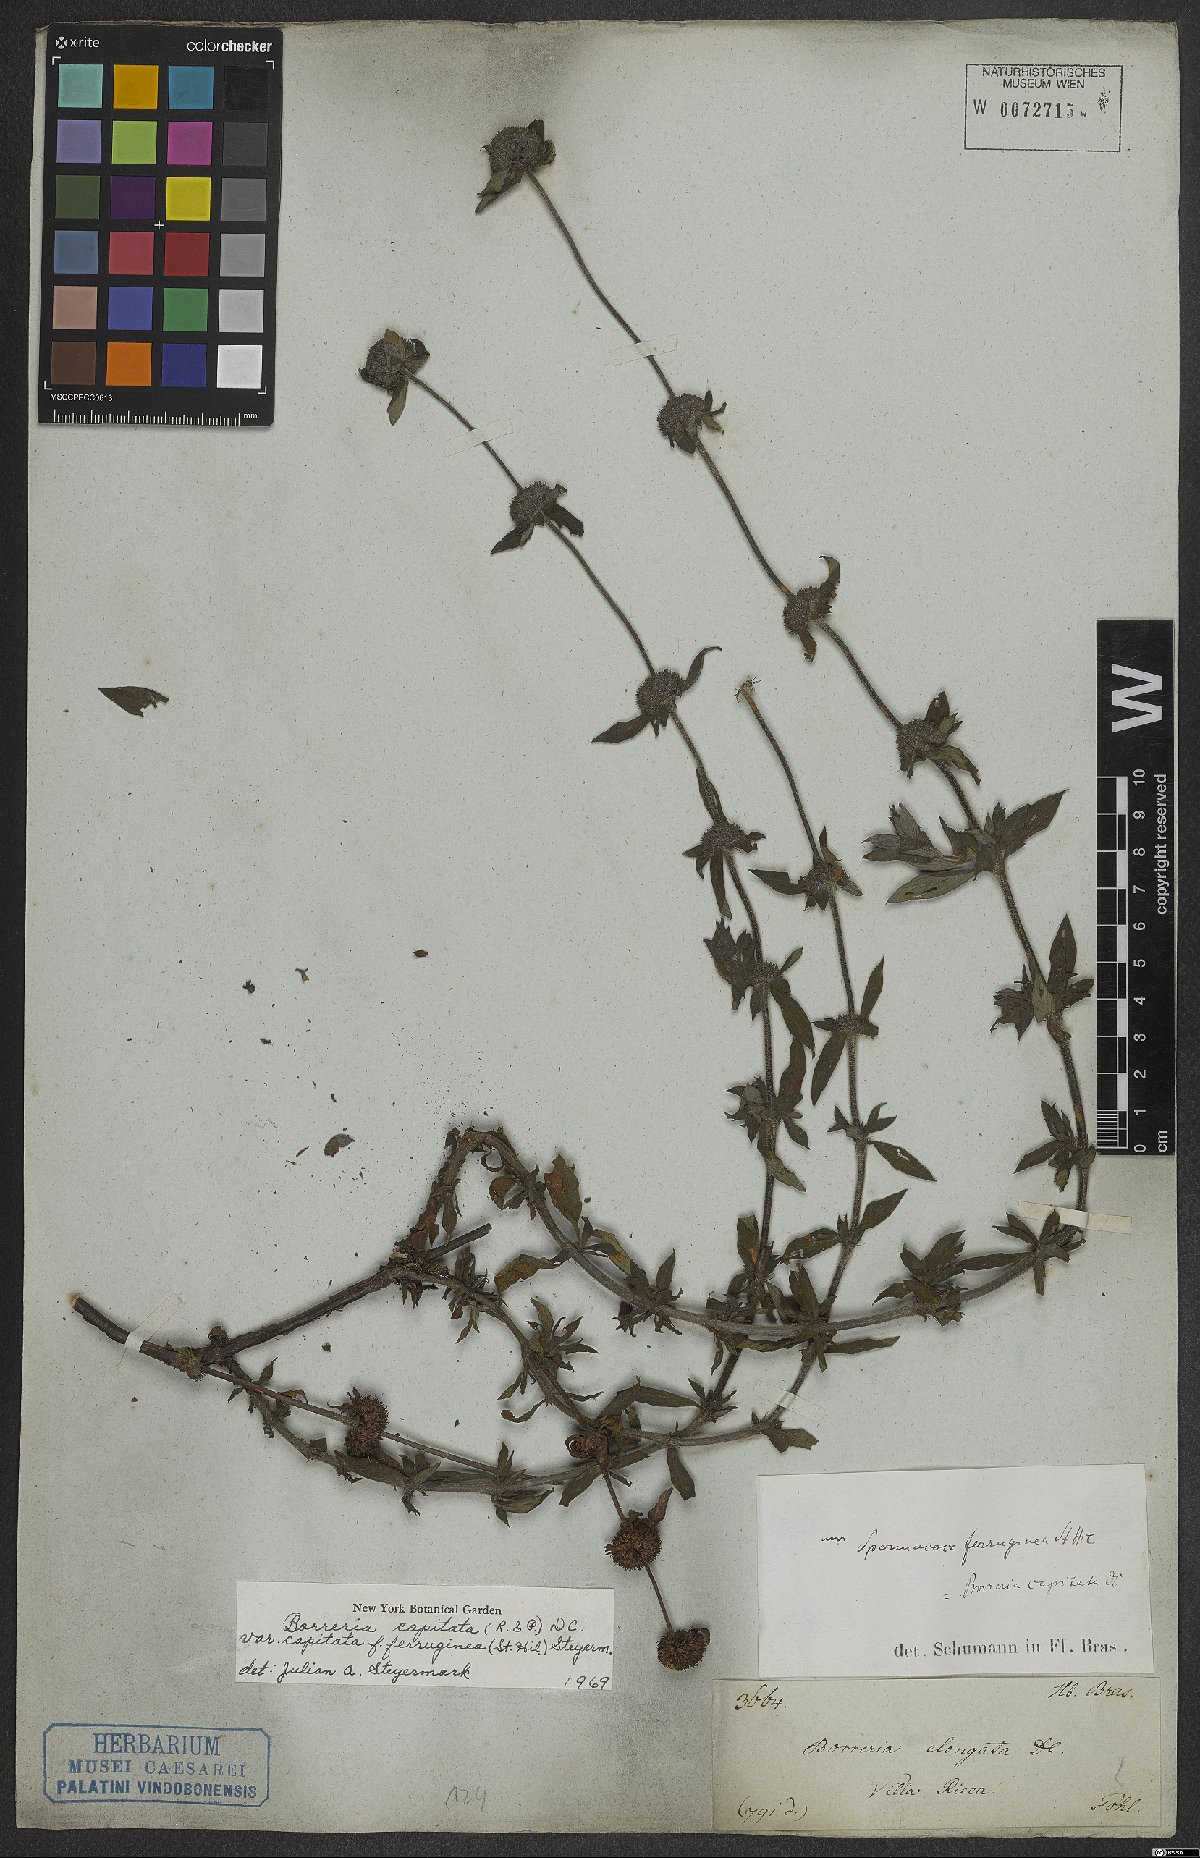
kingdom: Plantae
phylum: Tracheophyta
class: Magnoliopsida
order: Gentianales
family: Rubiaceae
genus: Spermacoce
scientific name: Spermacoce capitata
